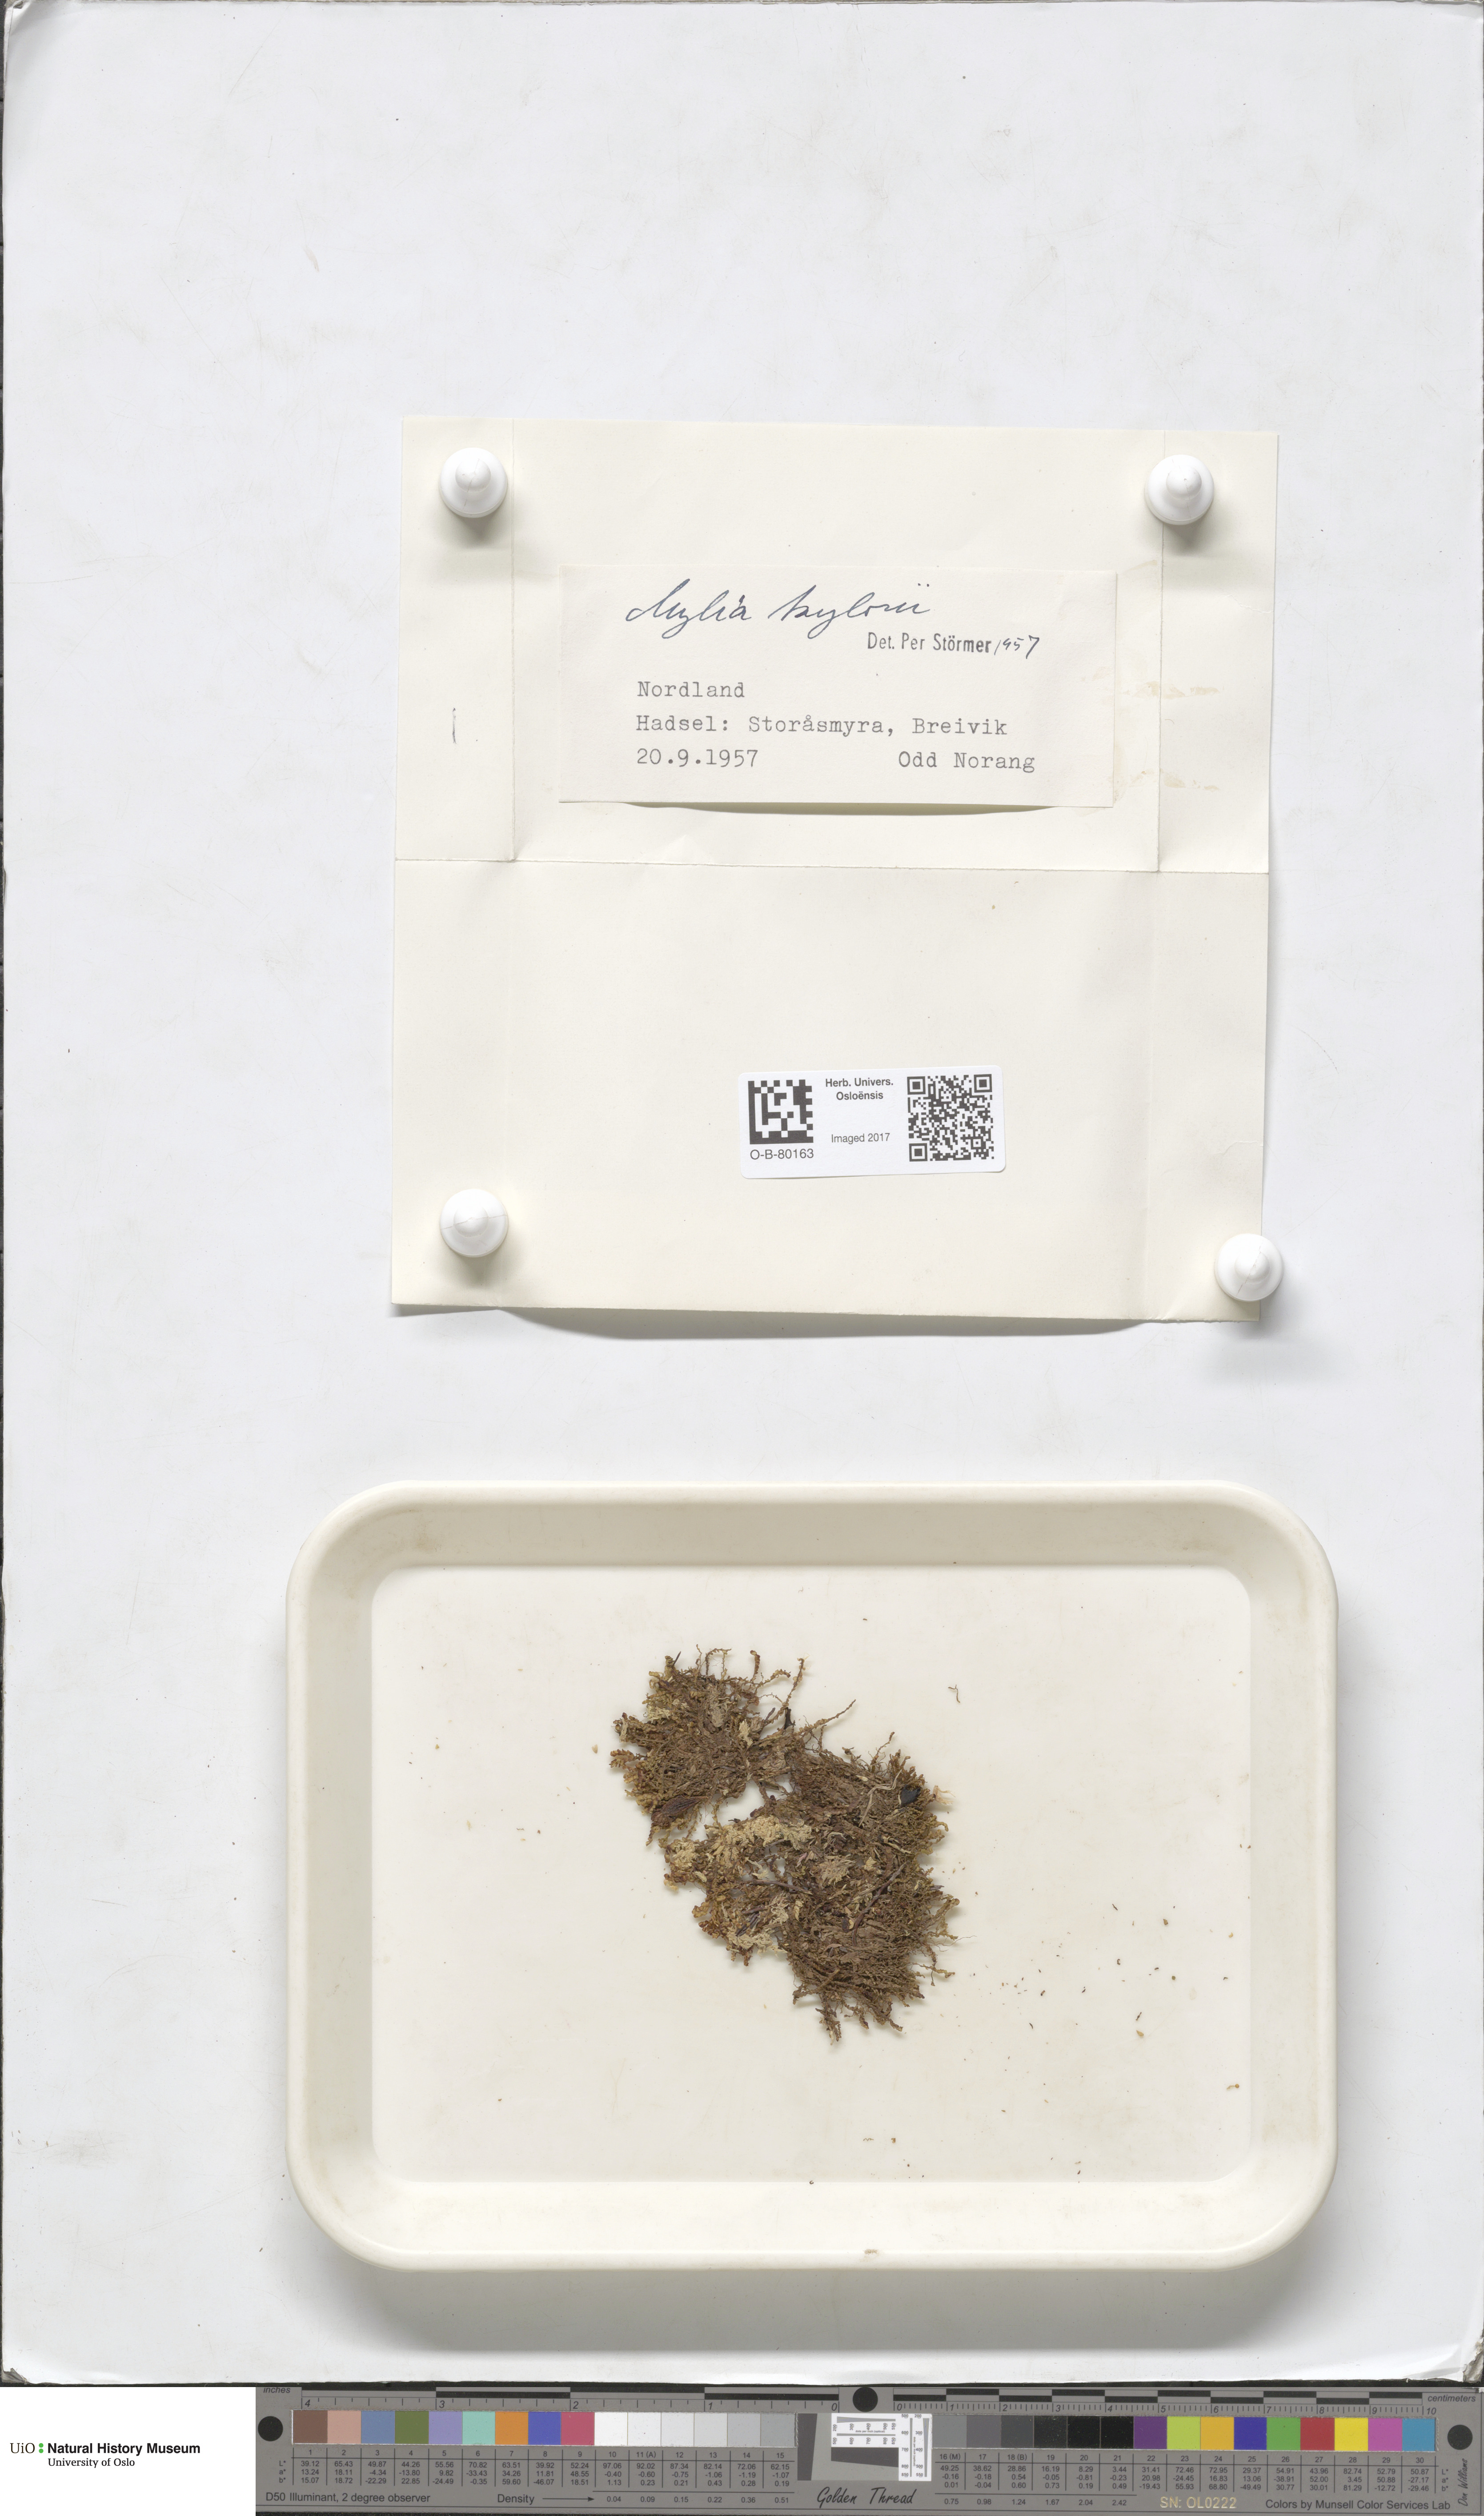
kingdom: Plantae
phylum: Marchantiophyta
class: Jungermanniopsida
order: Jungermanniales
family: Myliaceae
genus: Mylia
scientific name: Mylia taylorii
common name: Taylor s flapwort
